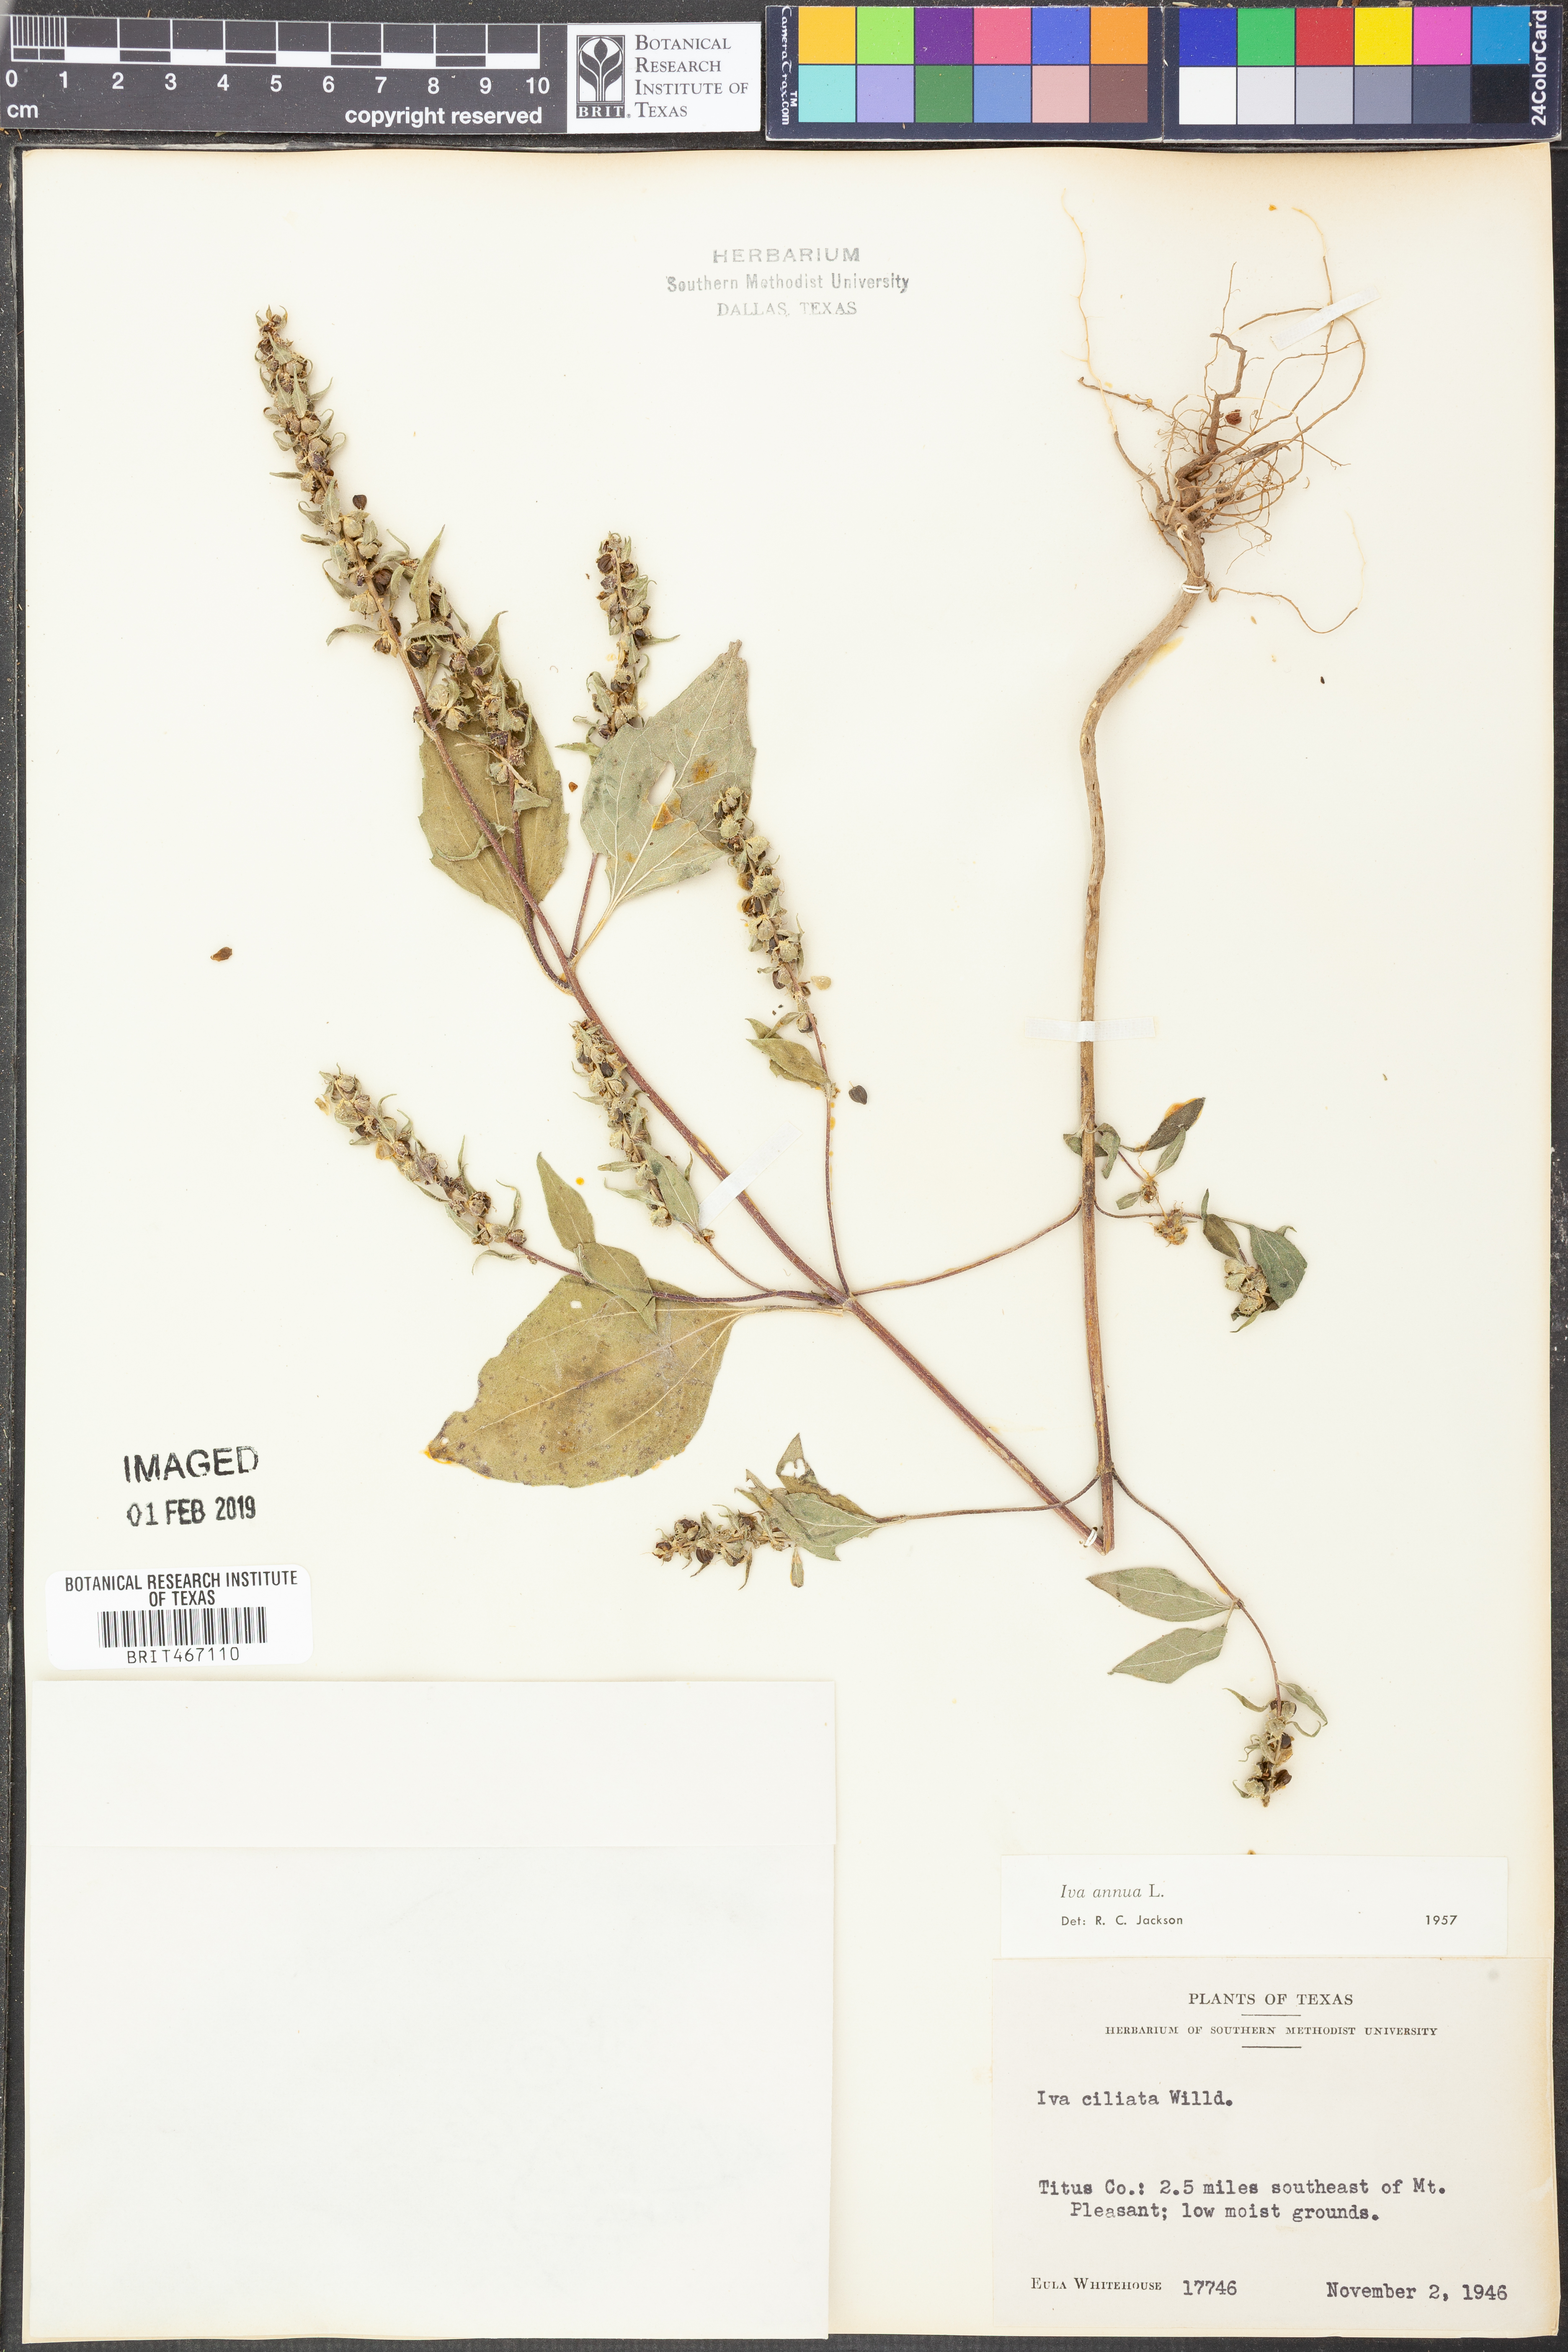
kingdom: Plantae
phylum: Tracheophyta
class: Magnoliopsida
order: Asterales
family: Asteraceae
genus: Iva
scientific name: Iva annua
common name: Marsh-elder
